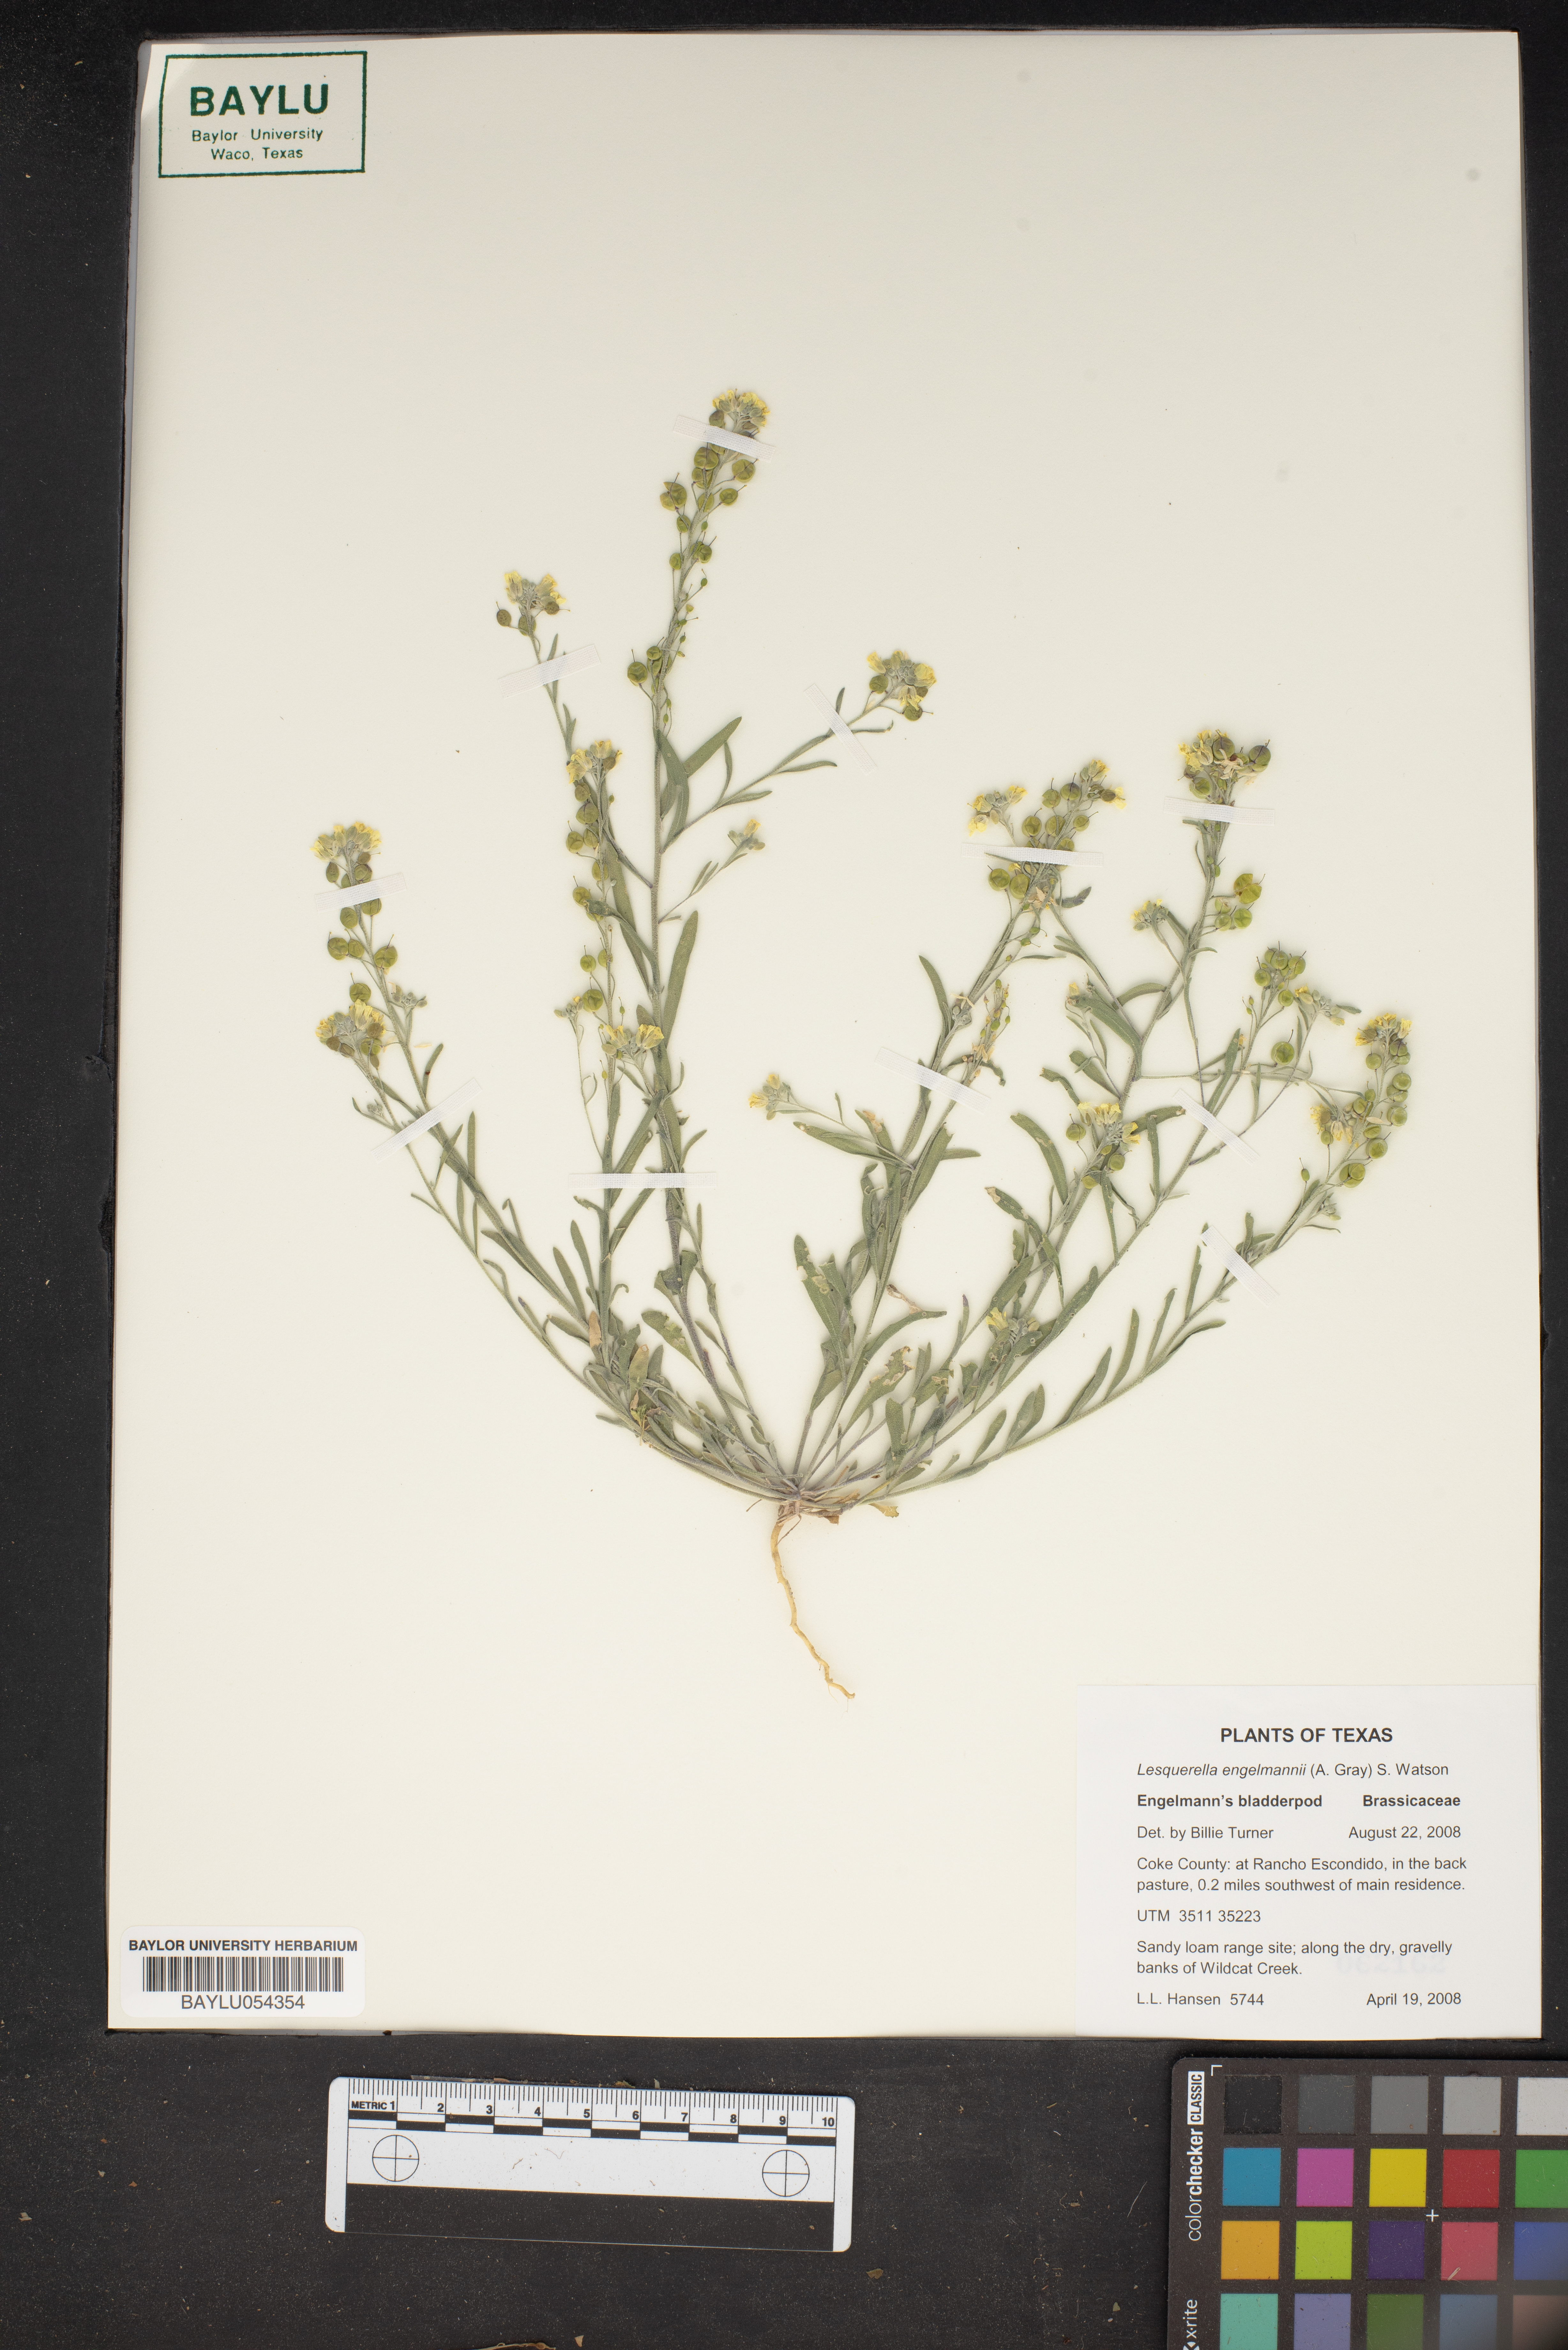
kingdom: Plantae
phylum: Tracheophyta
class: Magnoliopsida
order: Brassicales
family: Brassicaceae
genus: Physaria
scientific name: Physaria engelmannii
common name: Engelmann's bladderpod
